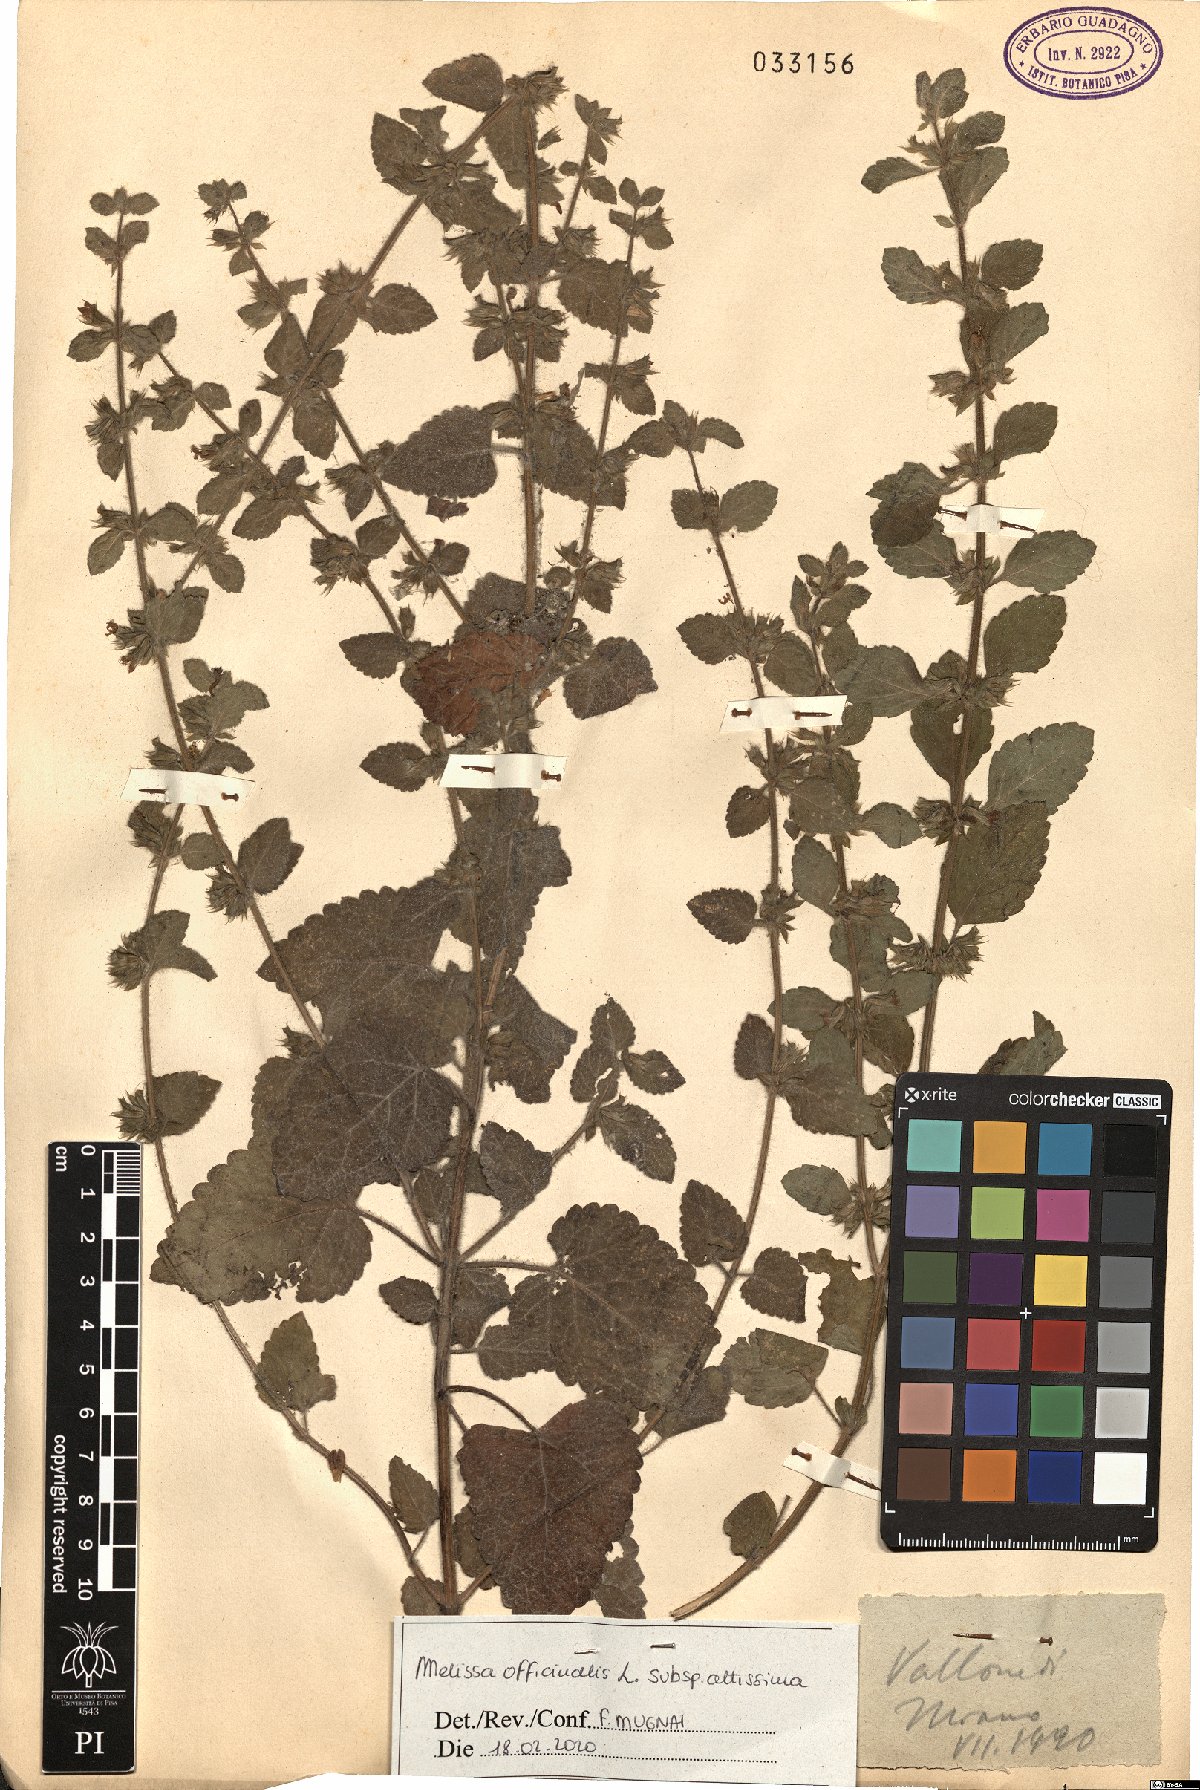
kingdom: Plantae
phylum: Tracheophyta
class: Magnoliopsida
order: Lamiales
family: Lamiaceae
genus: Melissa
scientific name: Melissa officinalis
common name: Balm
